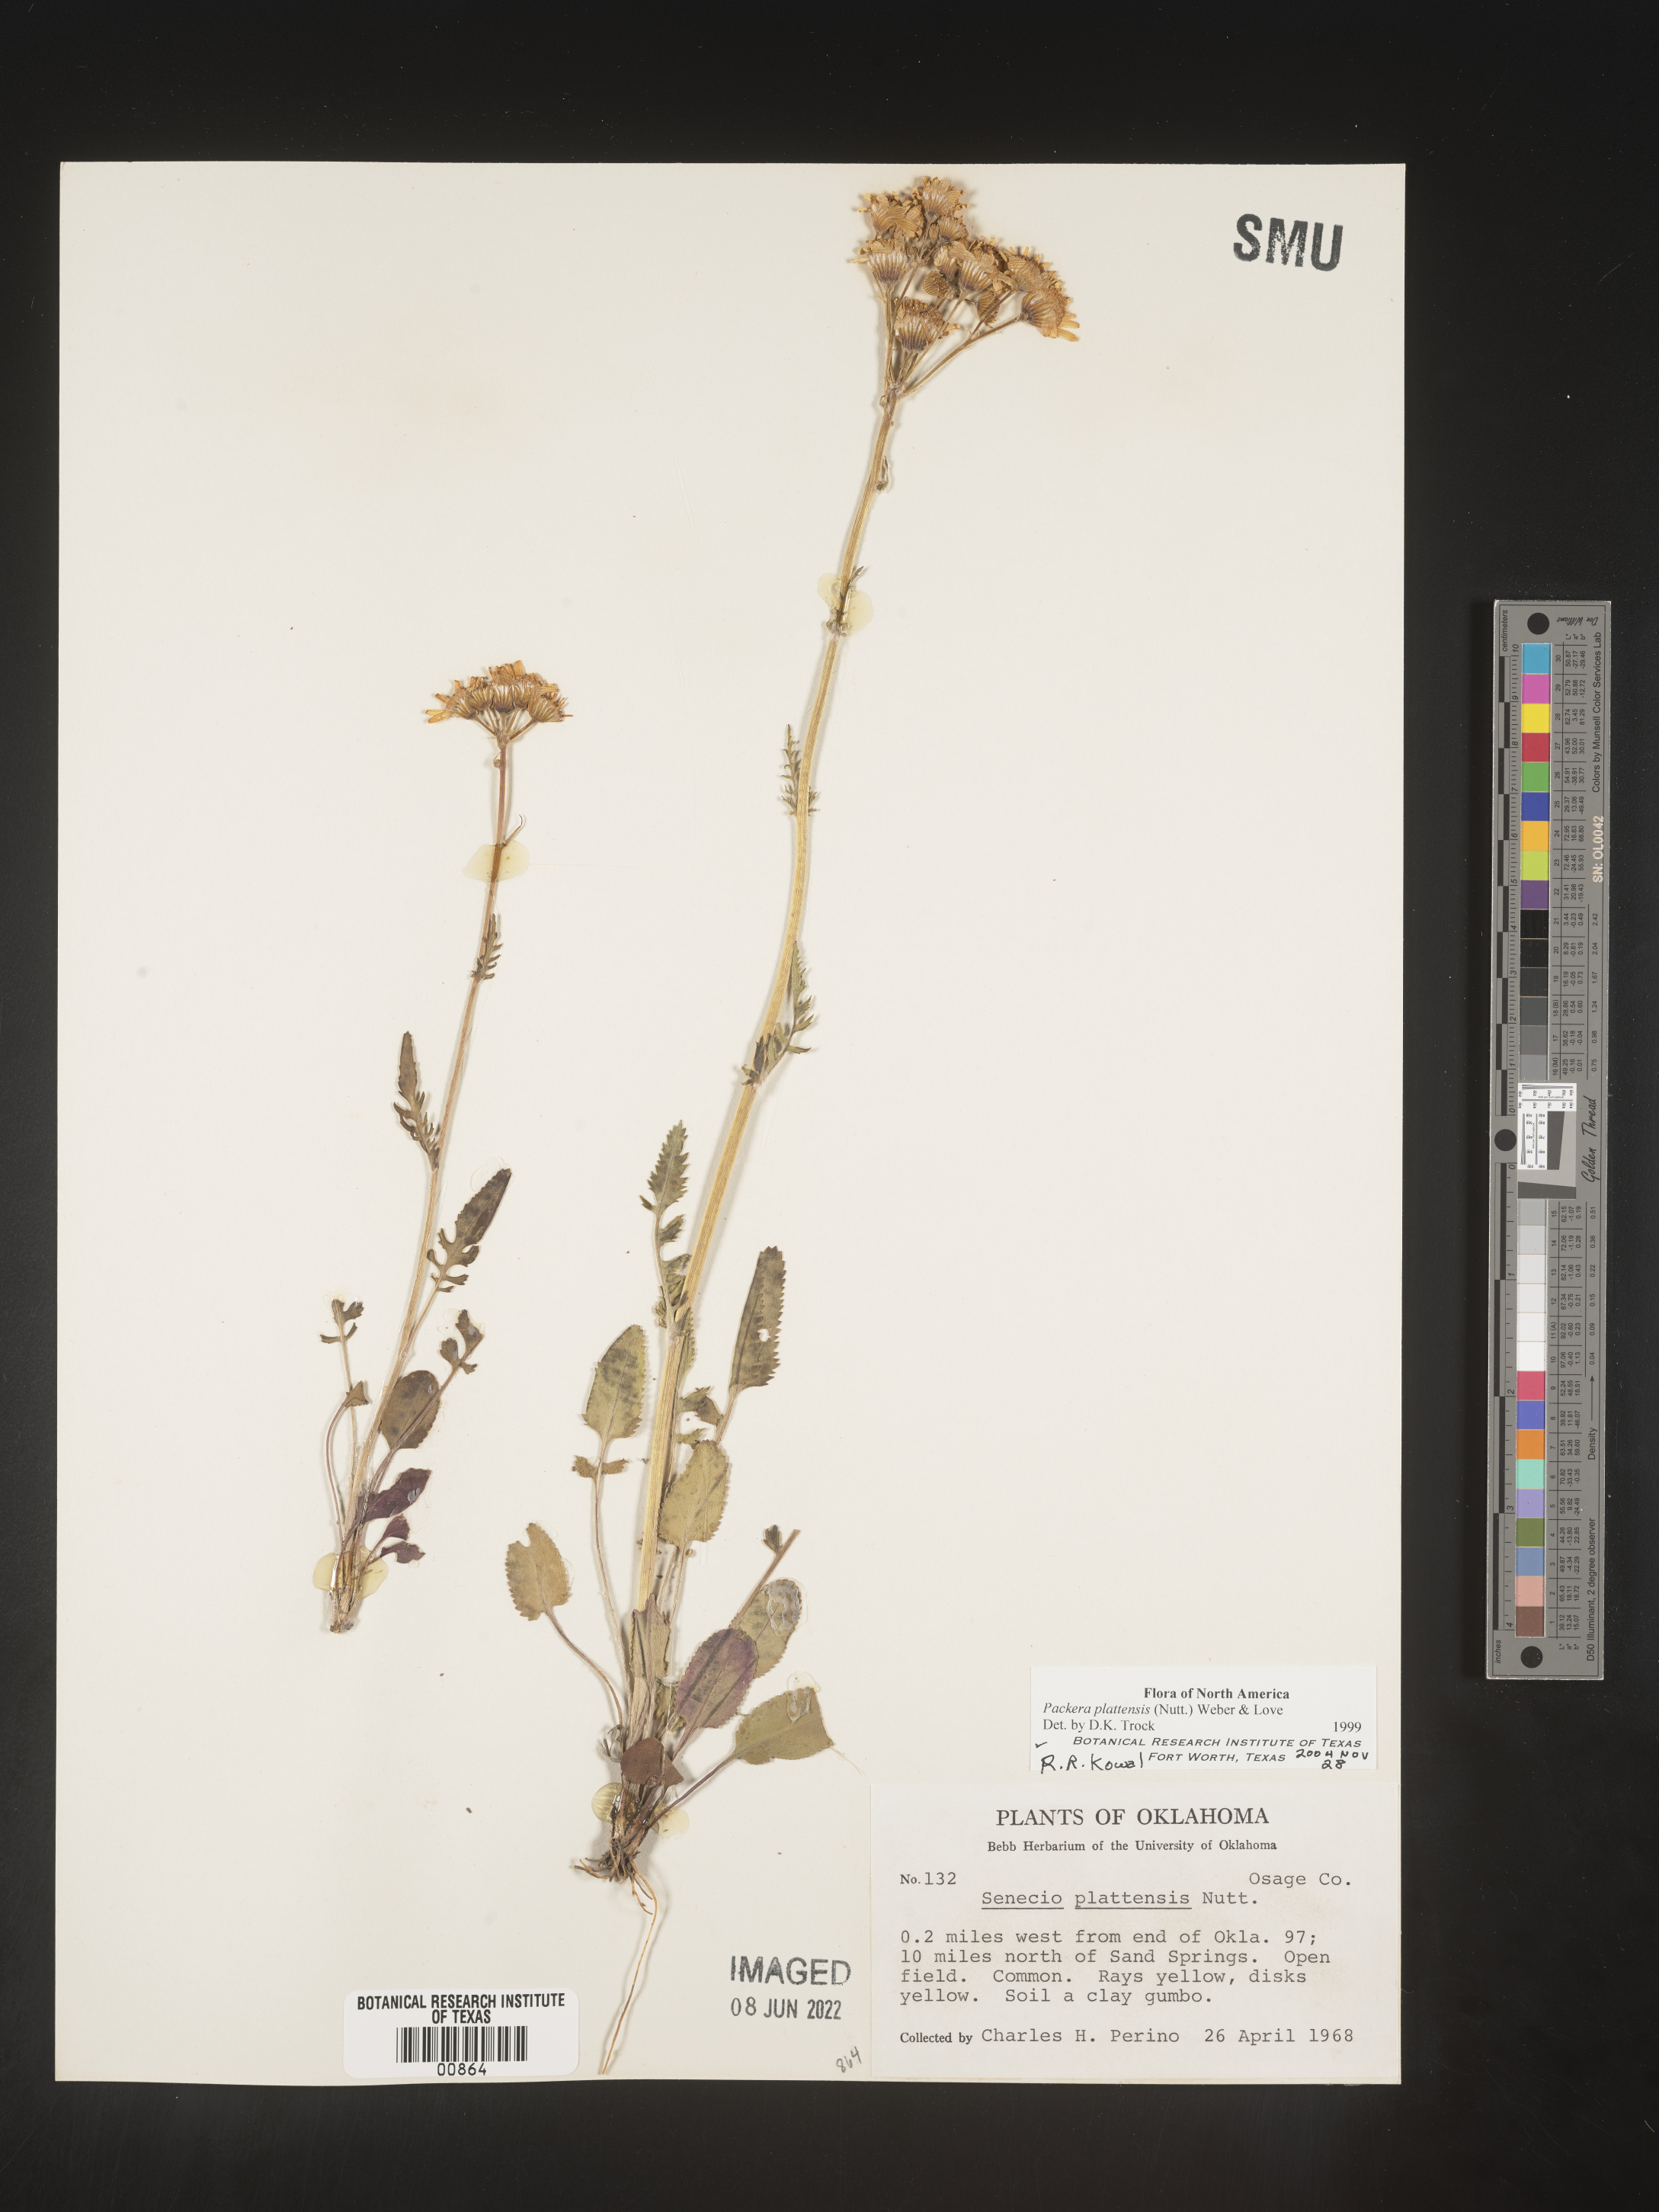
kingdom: Plantae
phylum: Tracheophyta
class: Magnoliopsida
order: Asterales
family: Asteraceae
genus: Packera
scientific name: Packera plattensis
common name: Prairie groundsel
